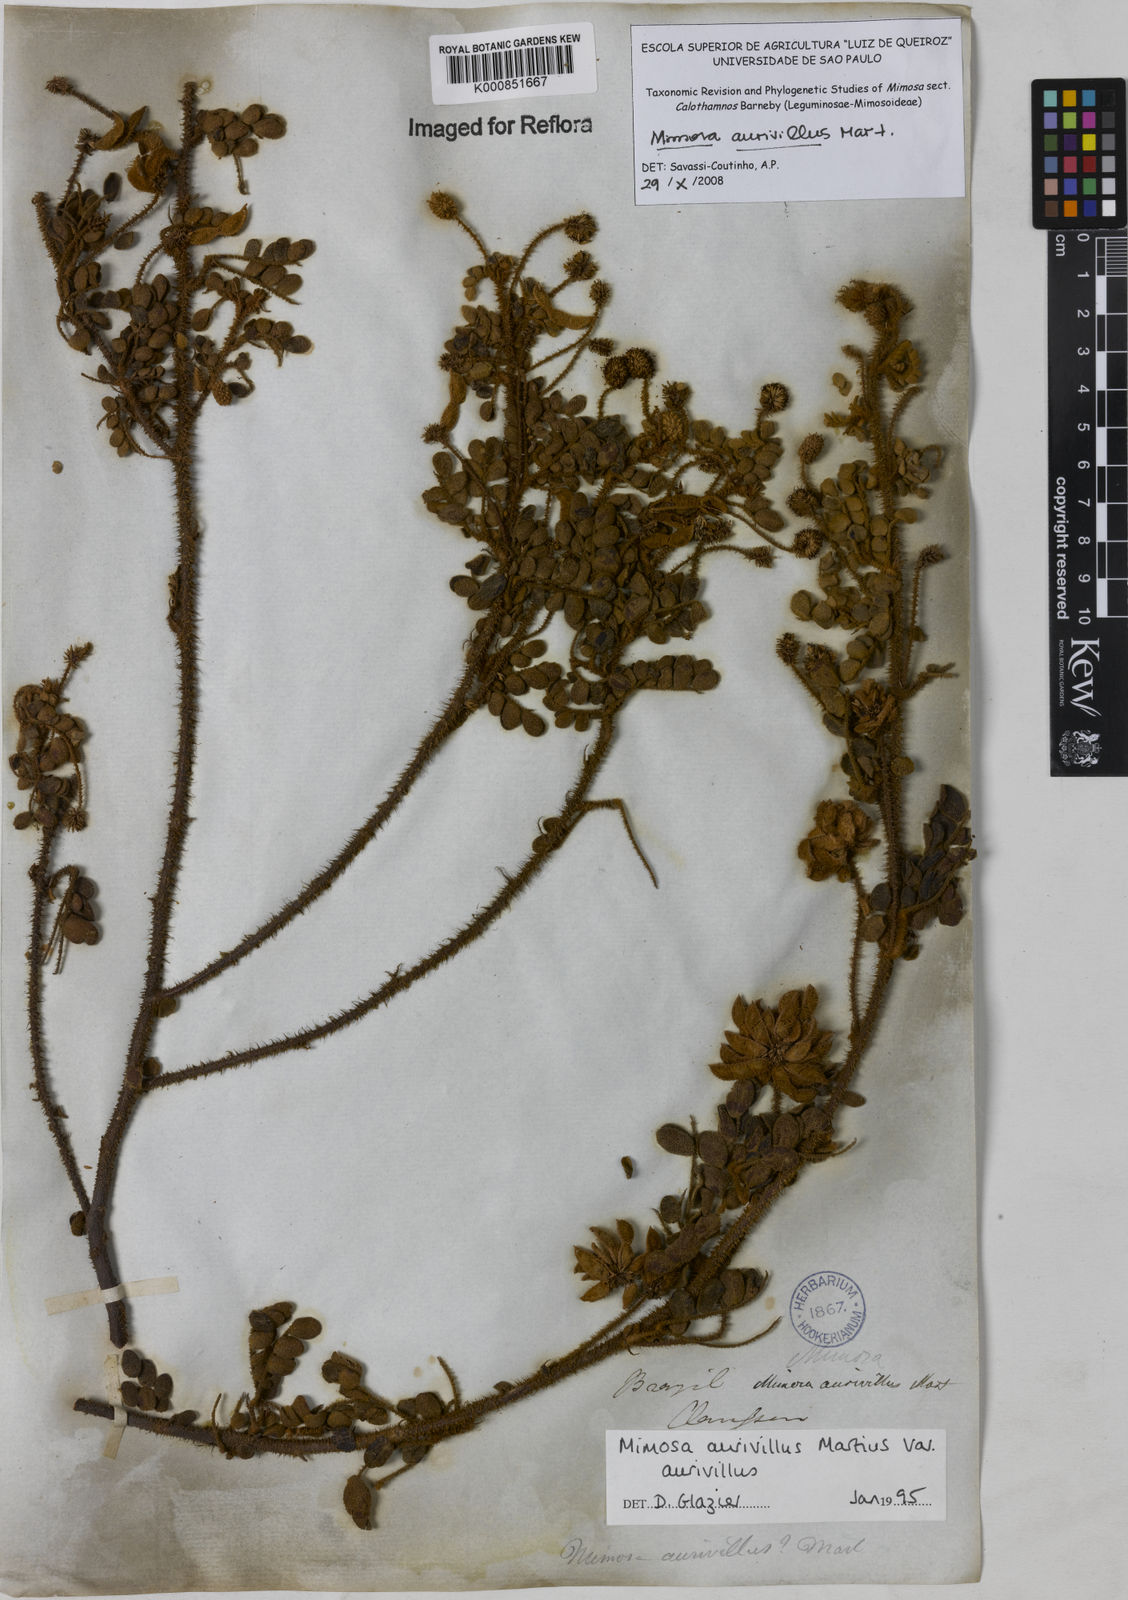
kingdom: Plantae
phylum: Tracheophyta
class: Magnoliopsida
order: Fabales
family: Fabaceae
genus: Mimosa
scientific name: Mimosa aurivillus
